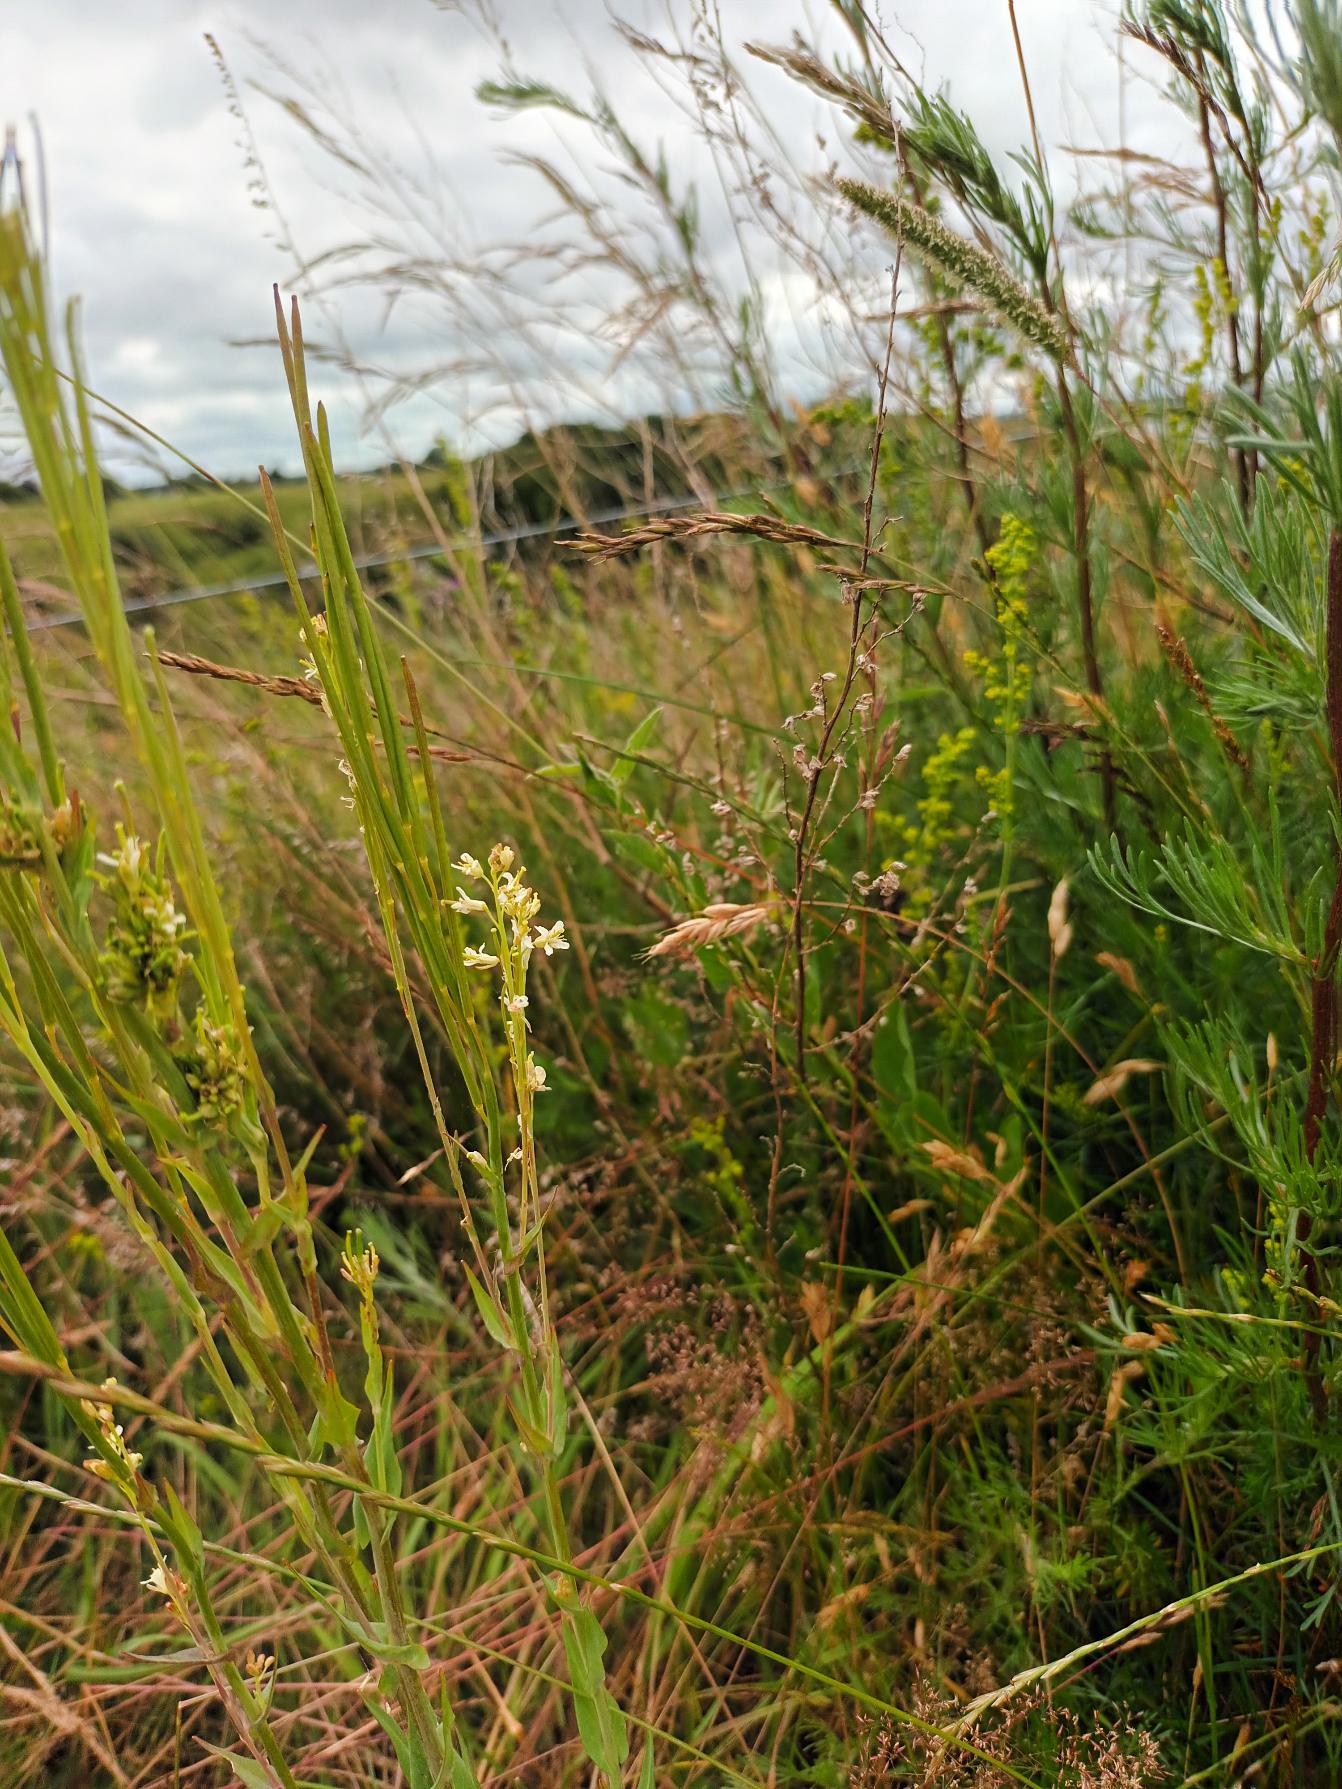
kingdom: Plantae
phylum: Tracheophyta
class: Magnoliopsida
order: Brassicales
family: Brassicaceae
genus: Turritis
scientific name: Turritis glabra
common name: Tårnurt
